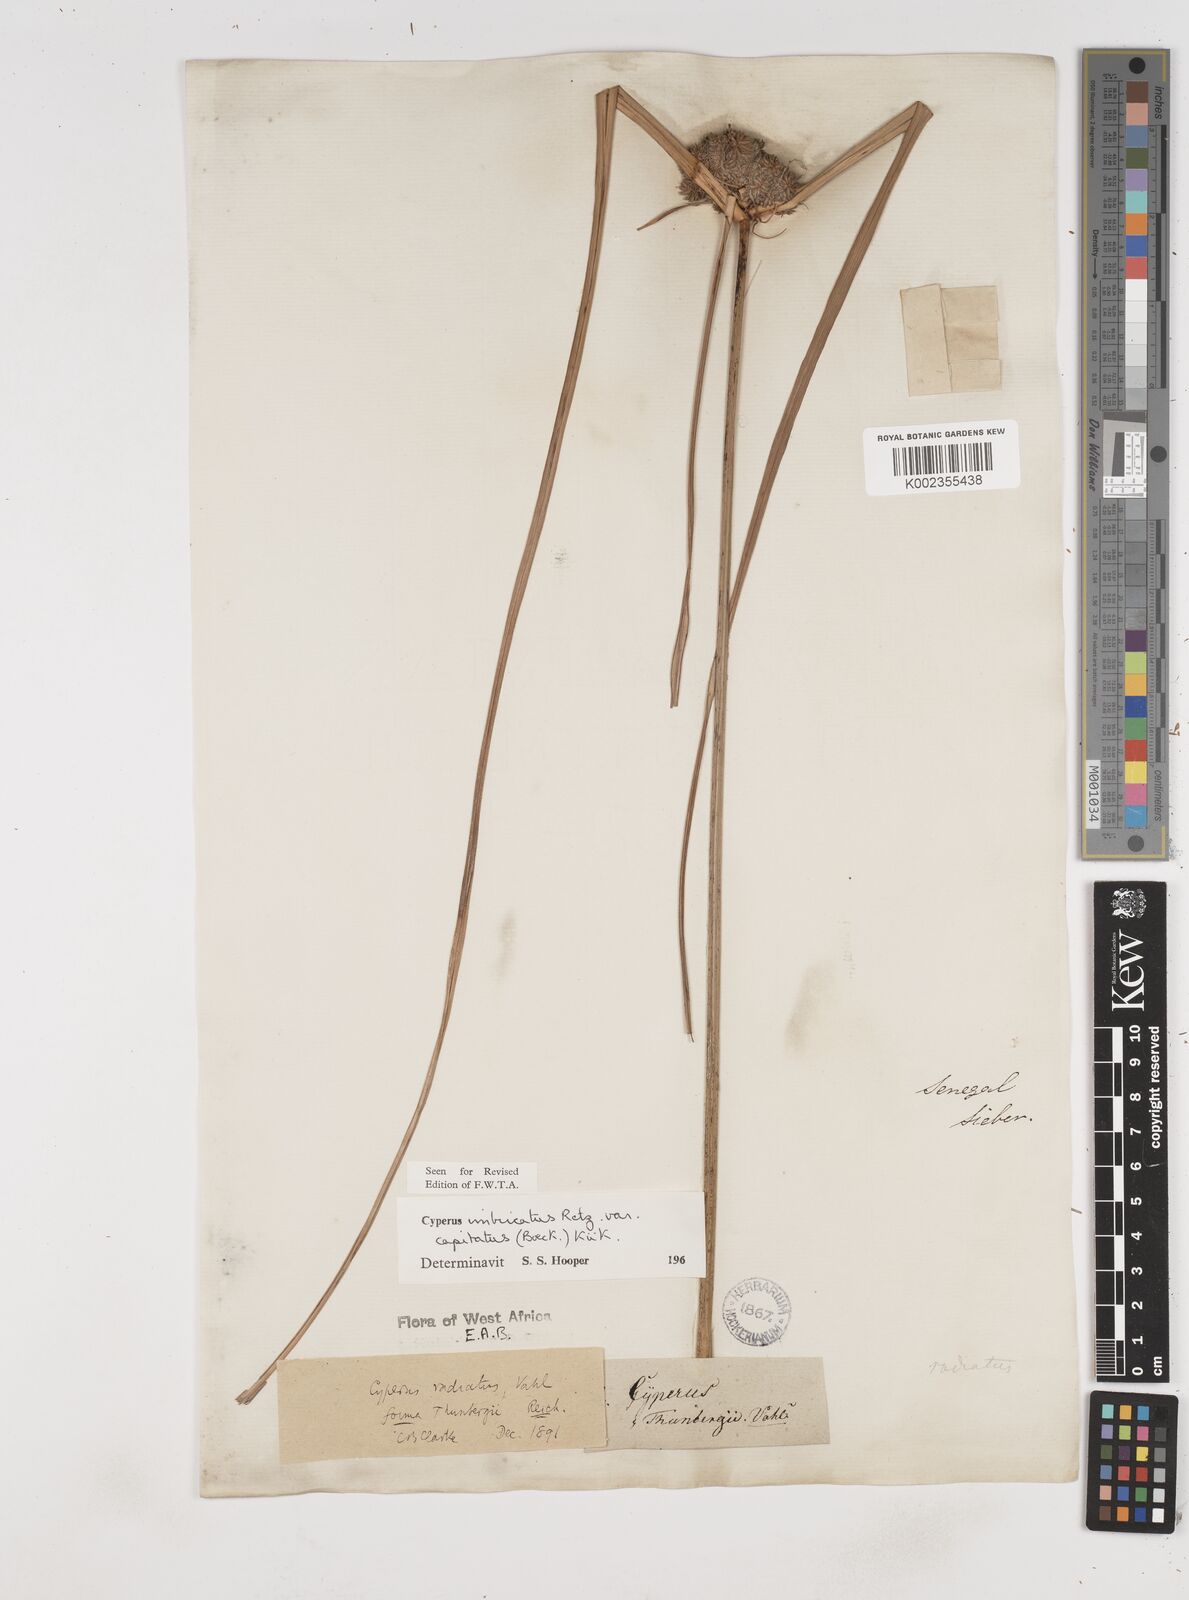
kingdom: Plantae
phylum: Tracheophyta
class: Liliopsida
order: Poales
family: Cyperaceae
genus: Cyperus
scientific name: Cyperus imbricatus
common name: Shingle flatsedge
